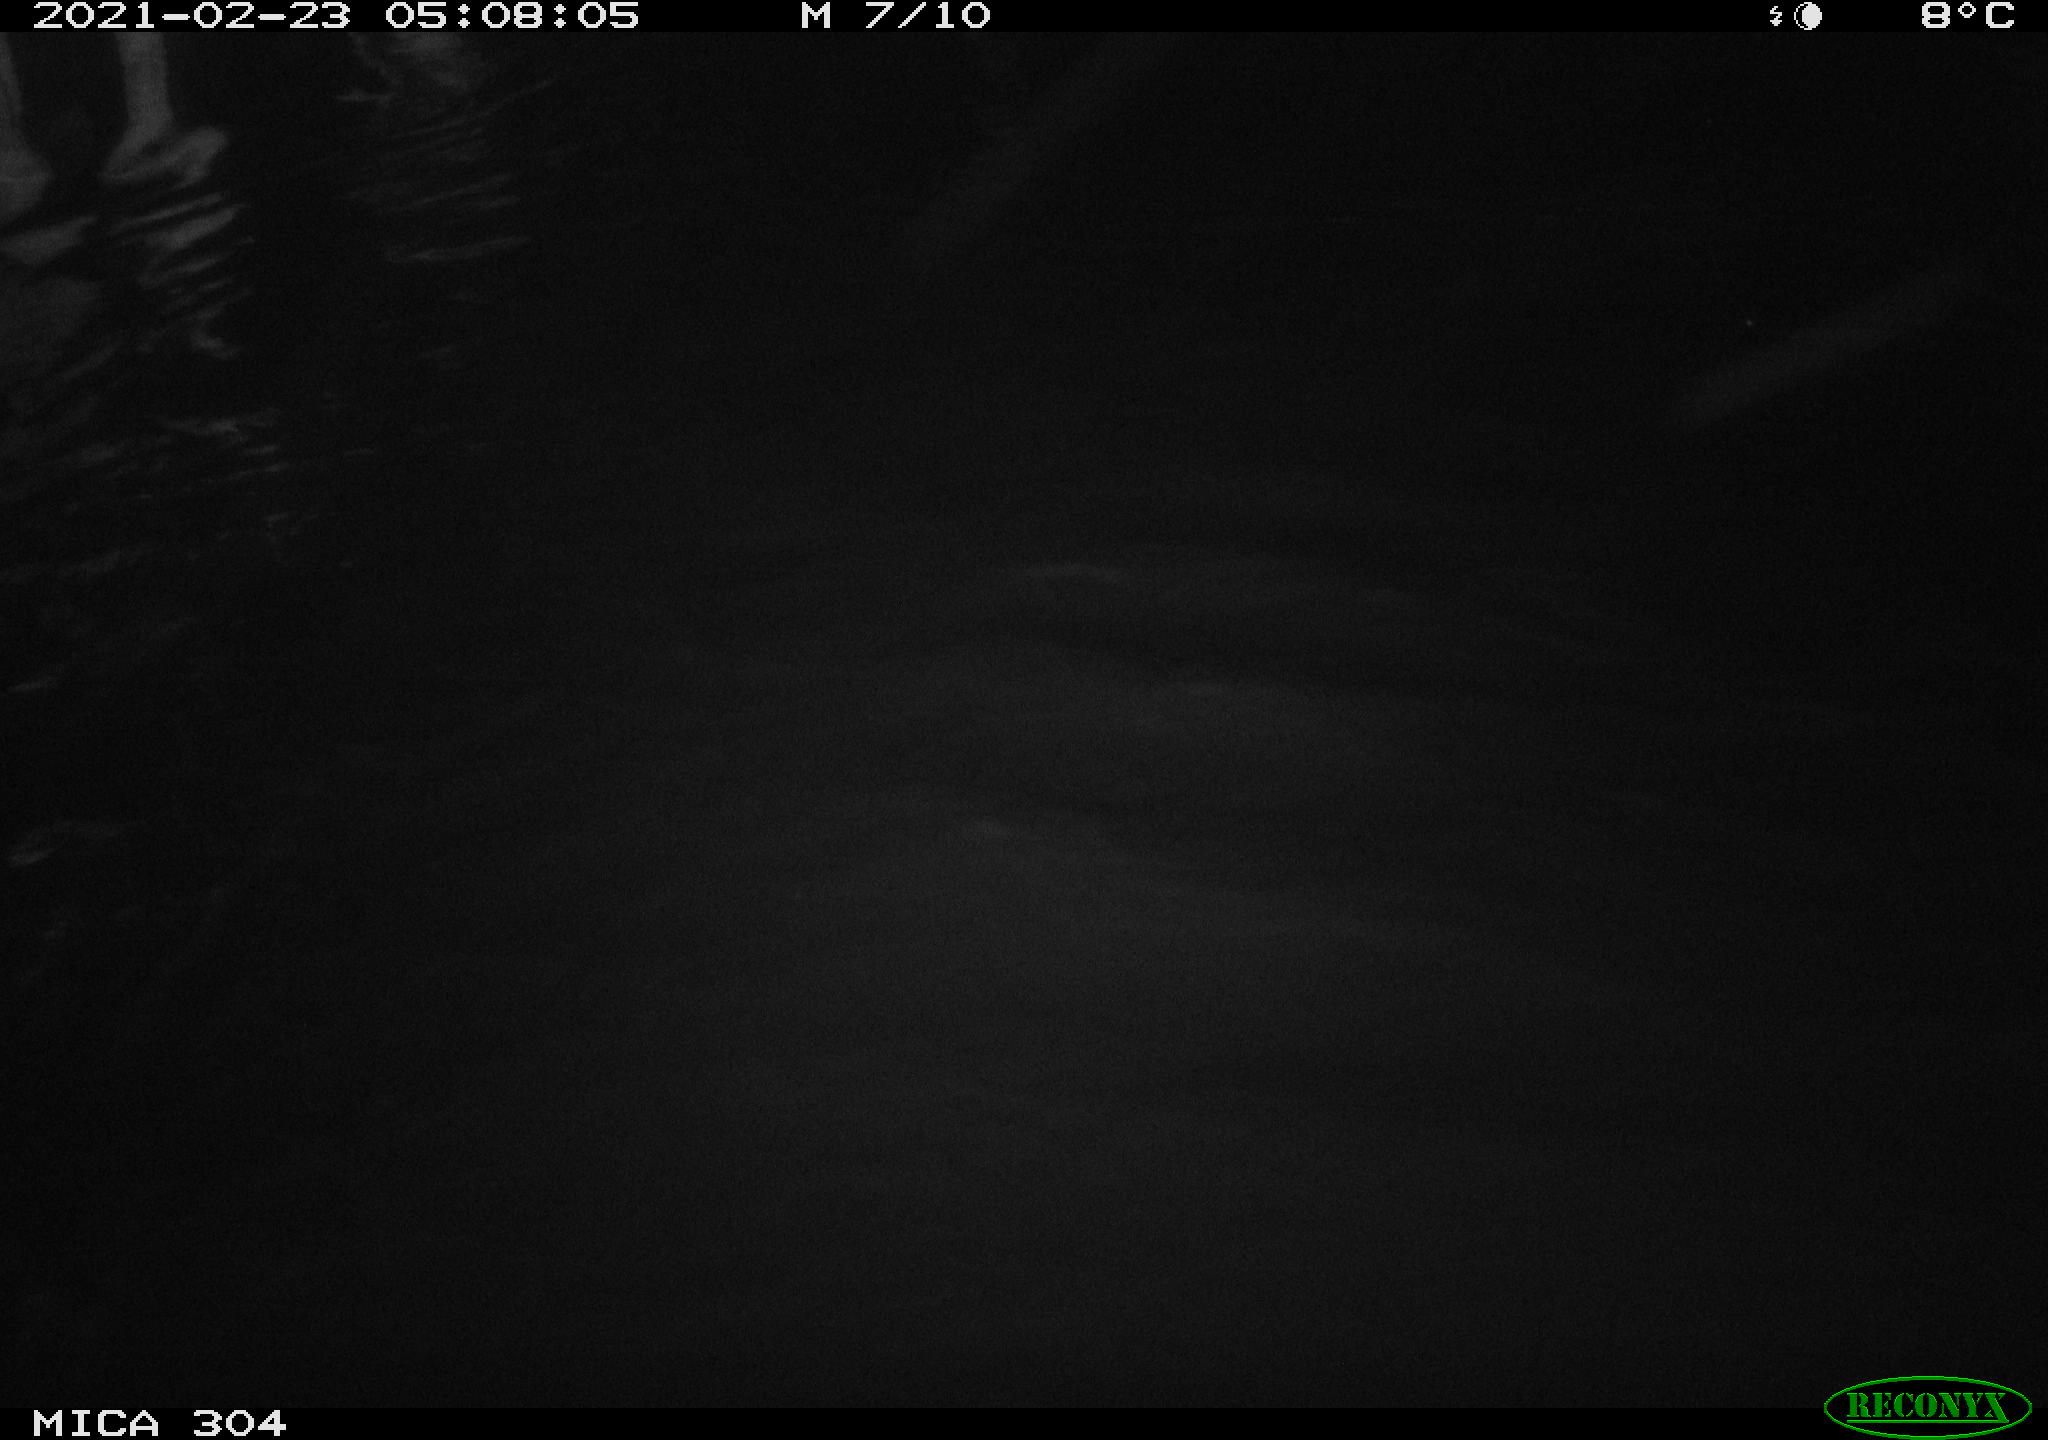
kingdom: Animalia
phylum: Chordata
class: Mammalia
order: Rodentia
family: Cricetidae
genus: Ondatra
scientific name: Ondatra zibethicus
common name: Muskrat
